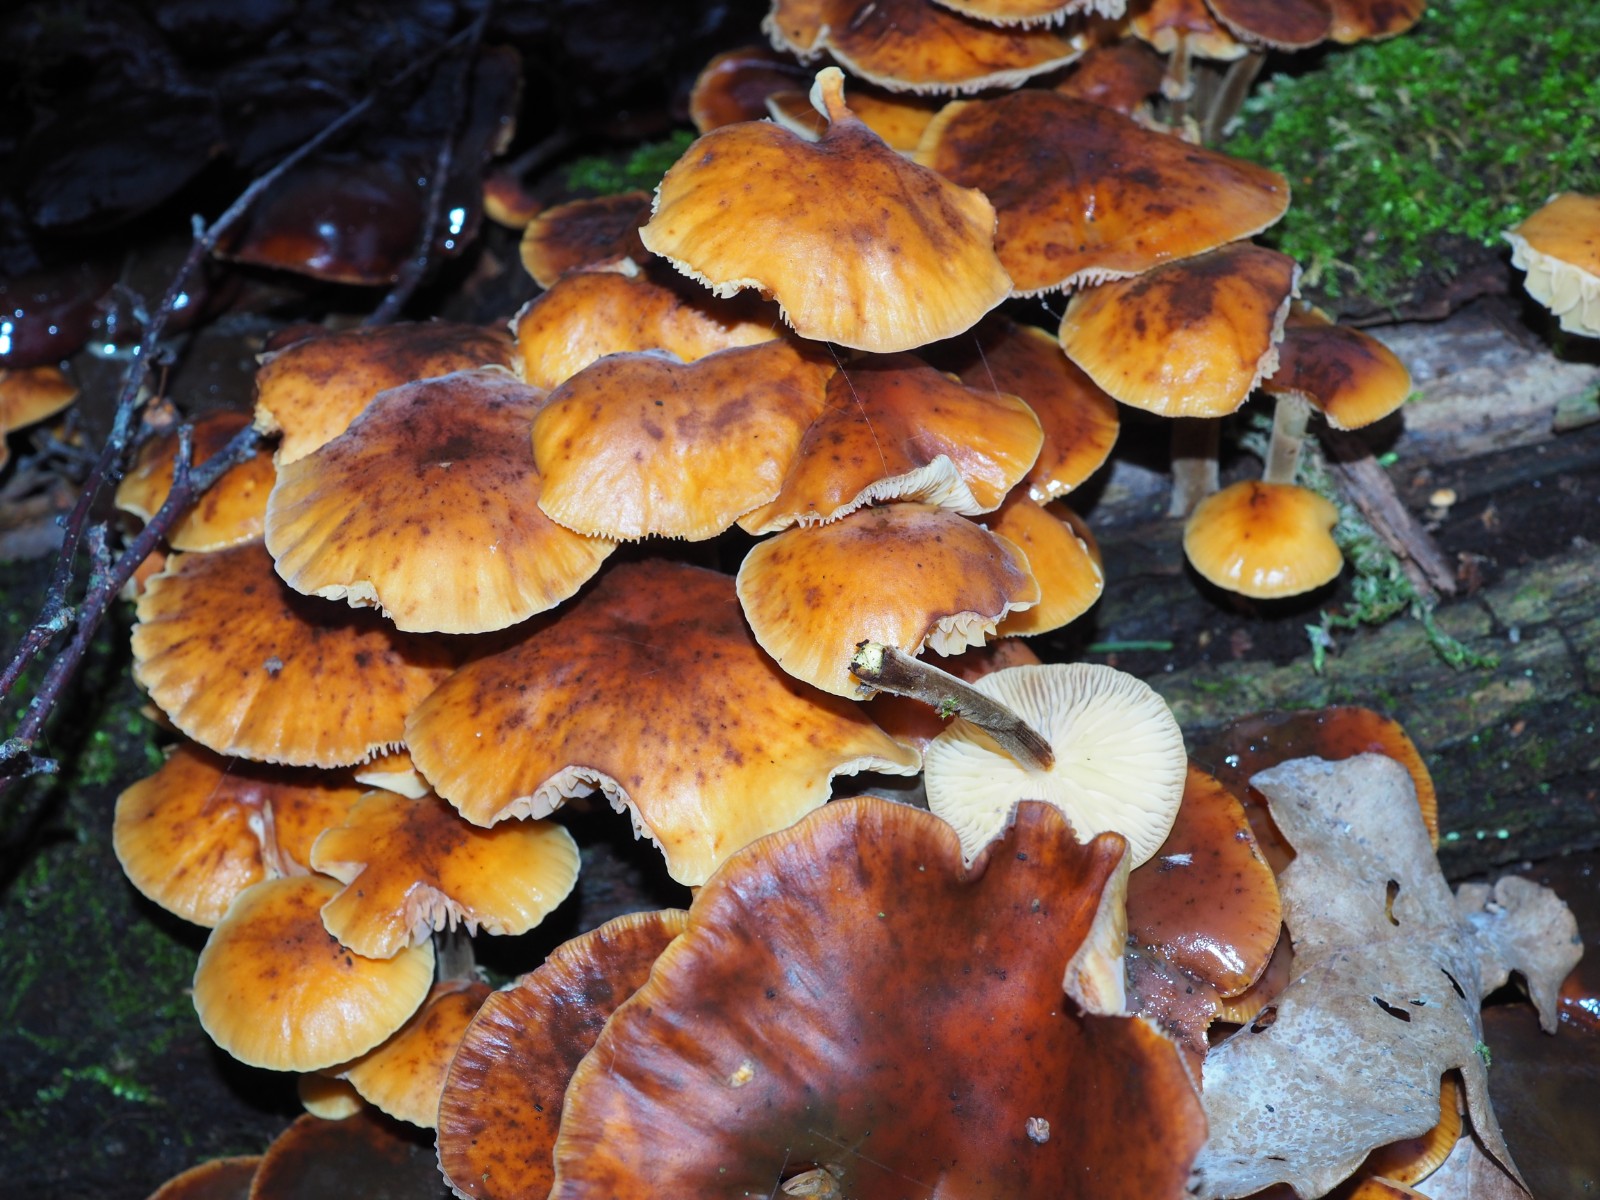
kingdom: Fungi
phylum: Basidiomycota
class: Agaricomycetes
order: Agaricales
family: Physalacriaceae
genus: Flammulina
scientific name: Flammulina velutipes
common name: gul fløjlsfod
